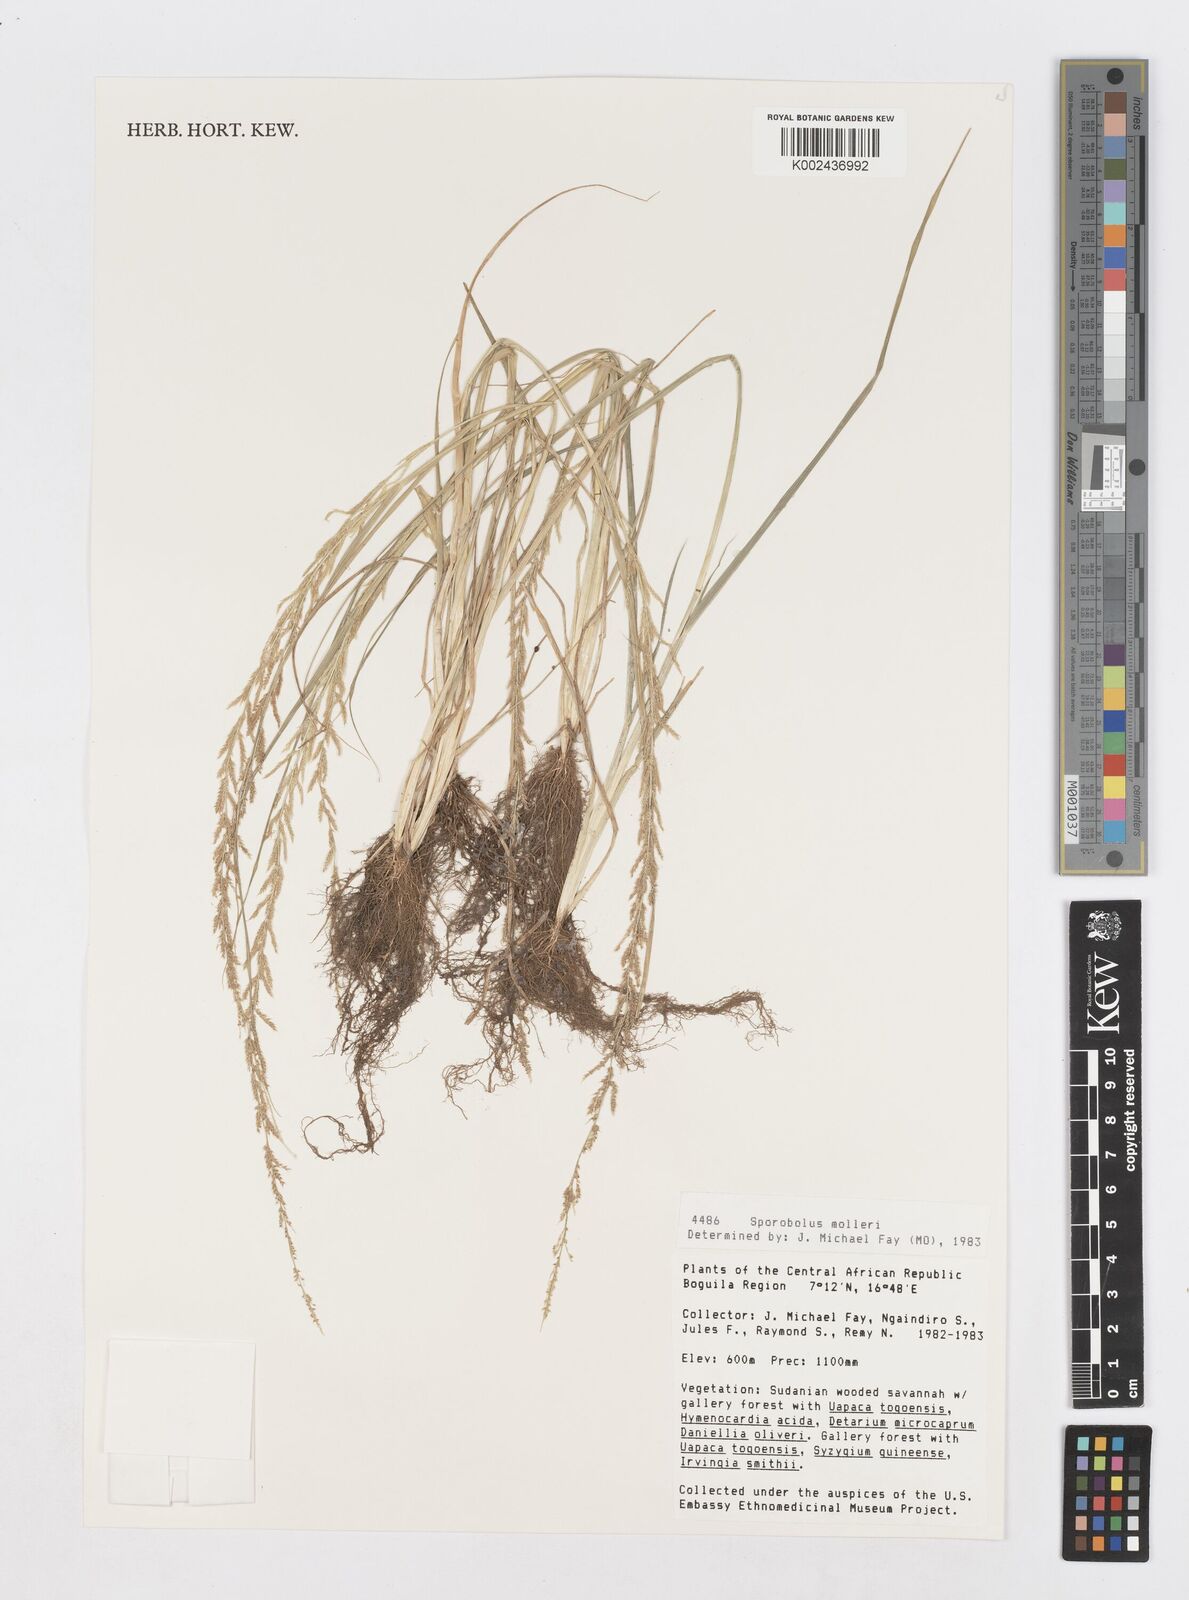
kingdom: Plantae
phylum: Tracheophyta
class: Liliopsida
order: Poales
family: Poaceae
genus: Sporobolus
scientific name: Sporobolus molleri
